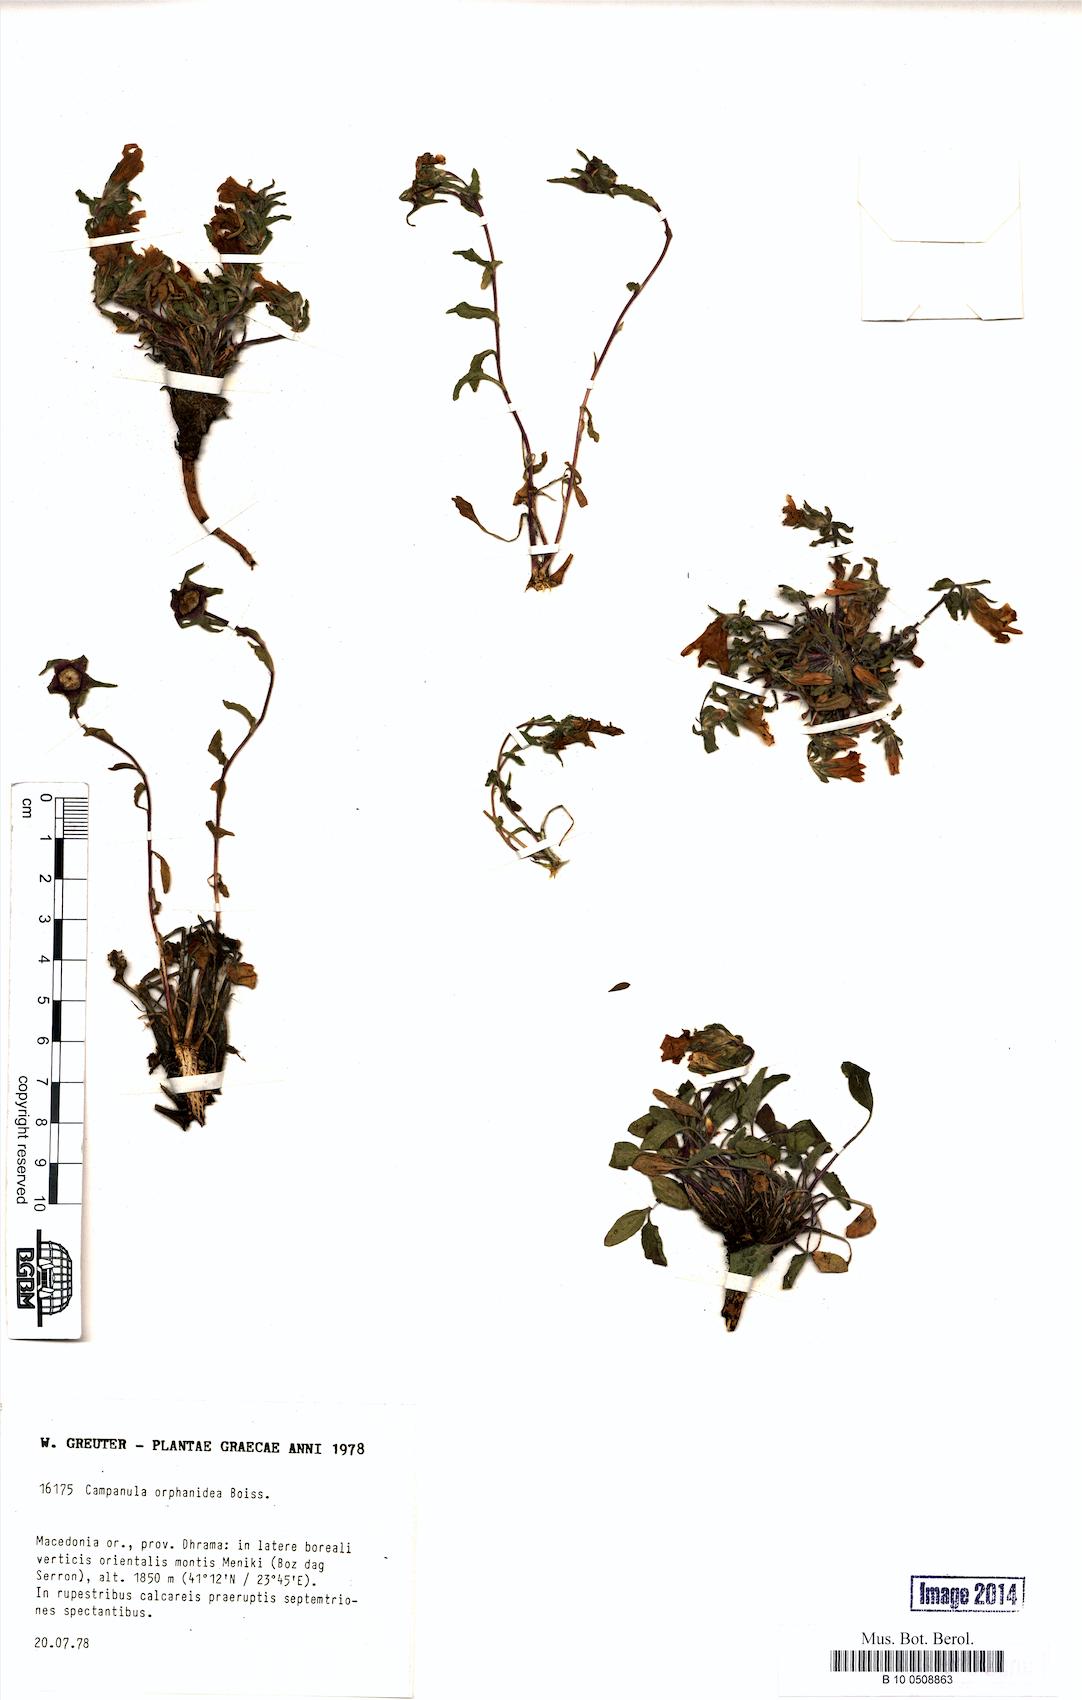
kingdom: Plantae
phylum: Tracheophyta
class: Magnoliopsida
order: Asterales
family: Campanulaceae
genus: Campanula
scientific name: Campanula orphanidea
